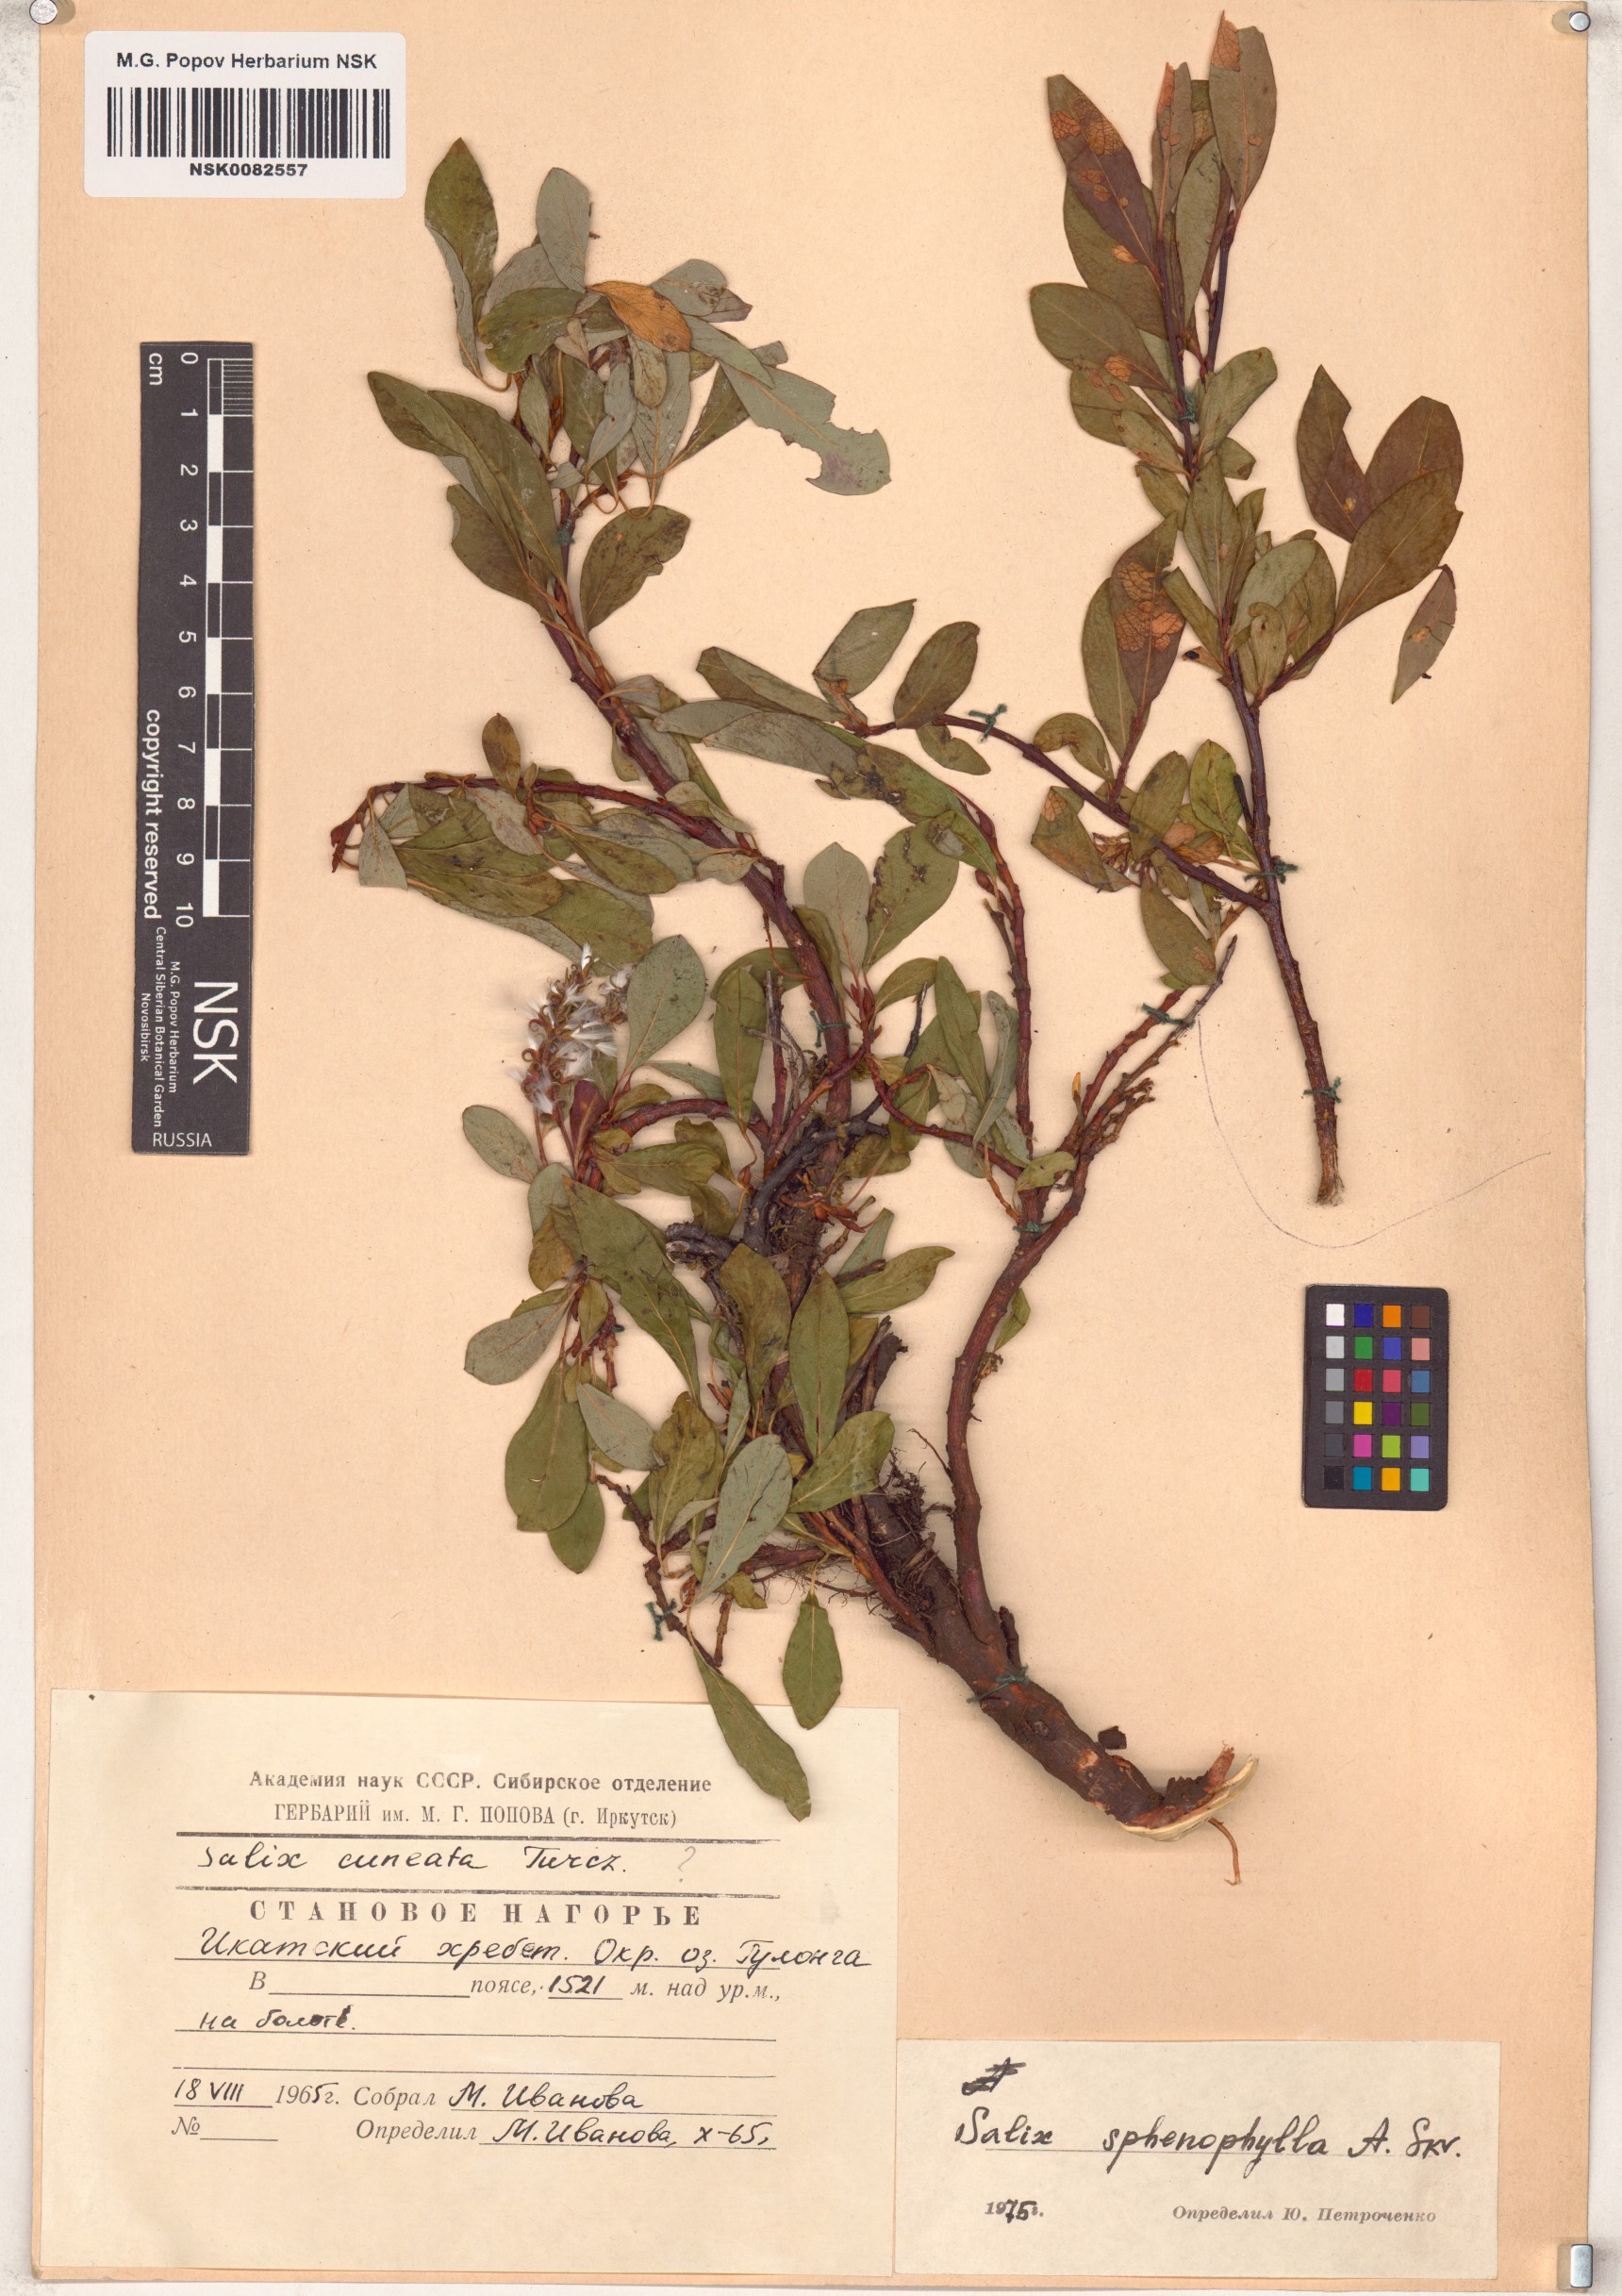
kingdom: Plantae
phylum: Tracheophyta
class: Magnoliopsida
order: Malpighiales
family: Salicaceae
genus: Salix
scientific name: Salix sphenophylla
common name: Wedge-leaved willow
